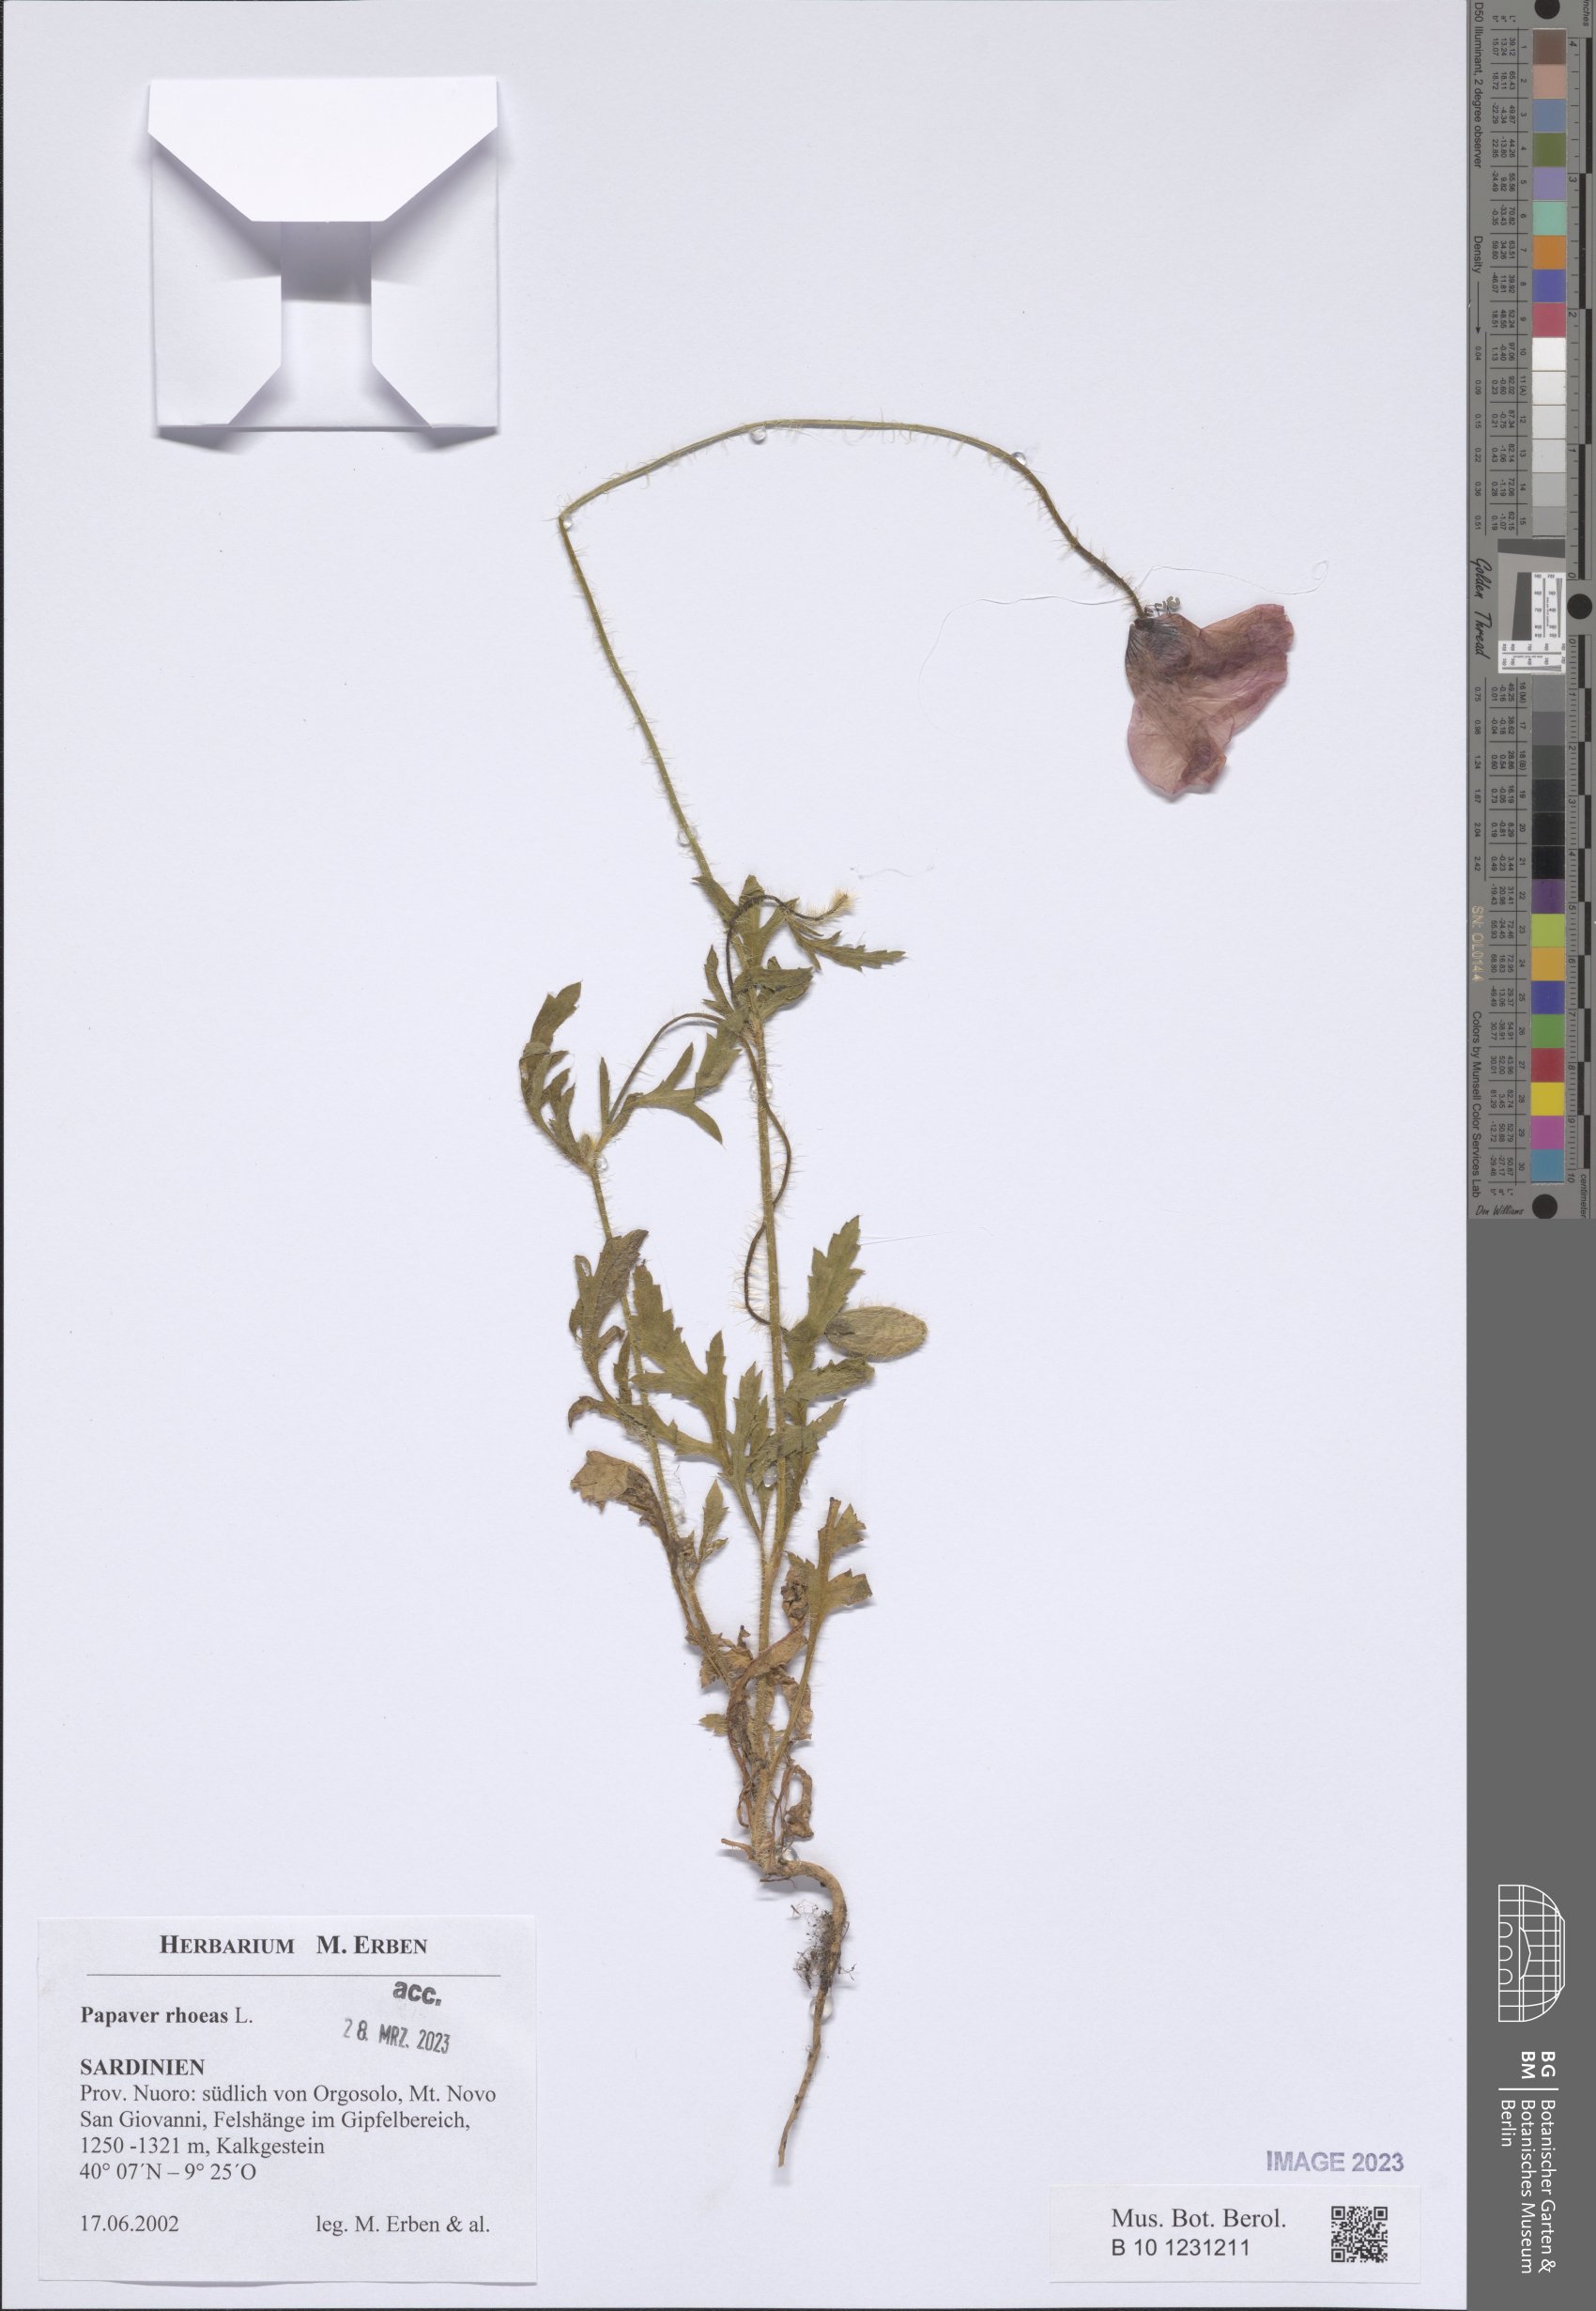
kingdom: Plantae
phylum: Tracheophyta
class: Magnoliopsida
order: Ranunculales
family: Papaveraceae
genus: Papaver
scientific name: Papaver rhoeas
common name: Corn poppy
